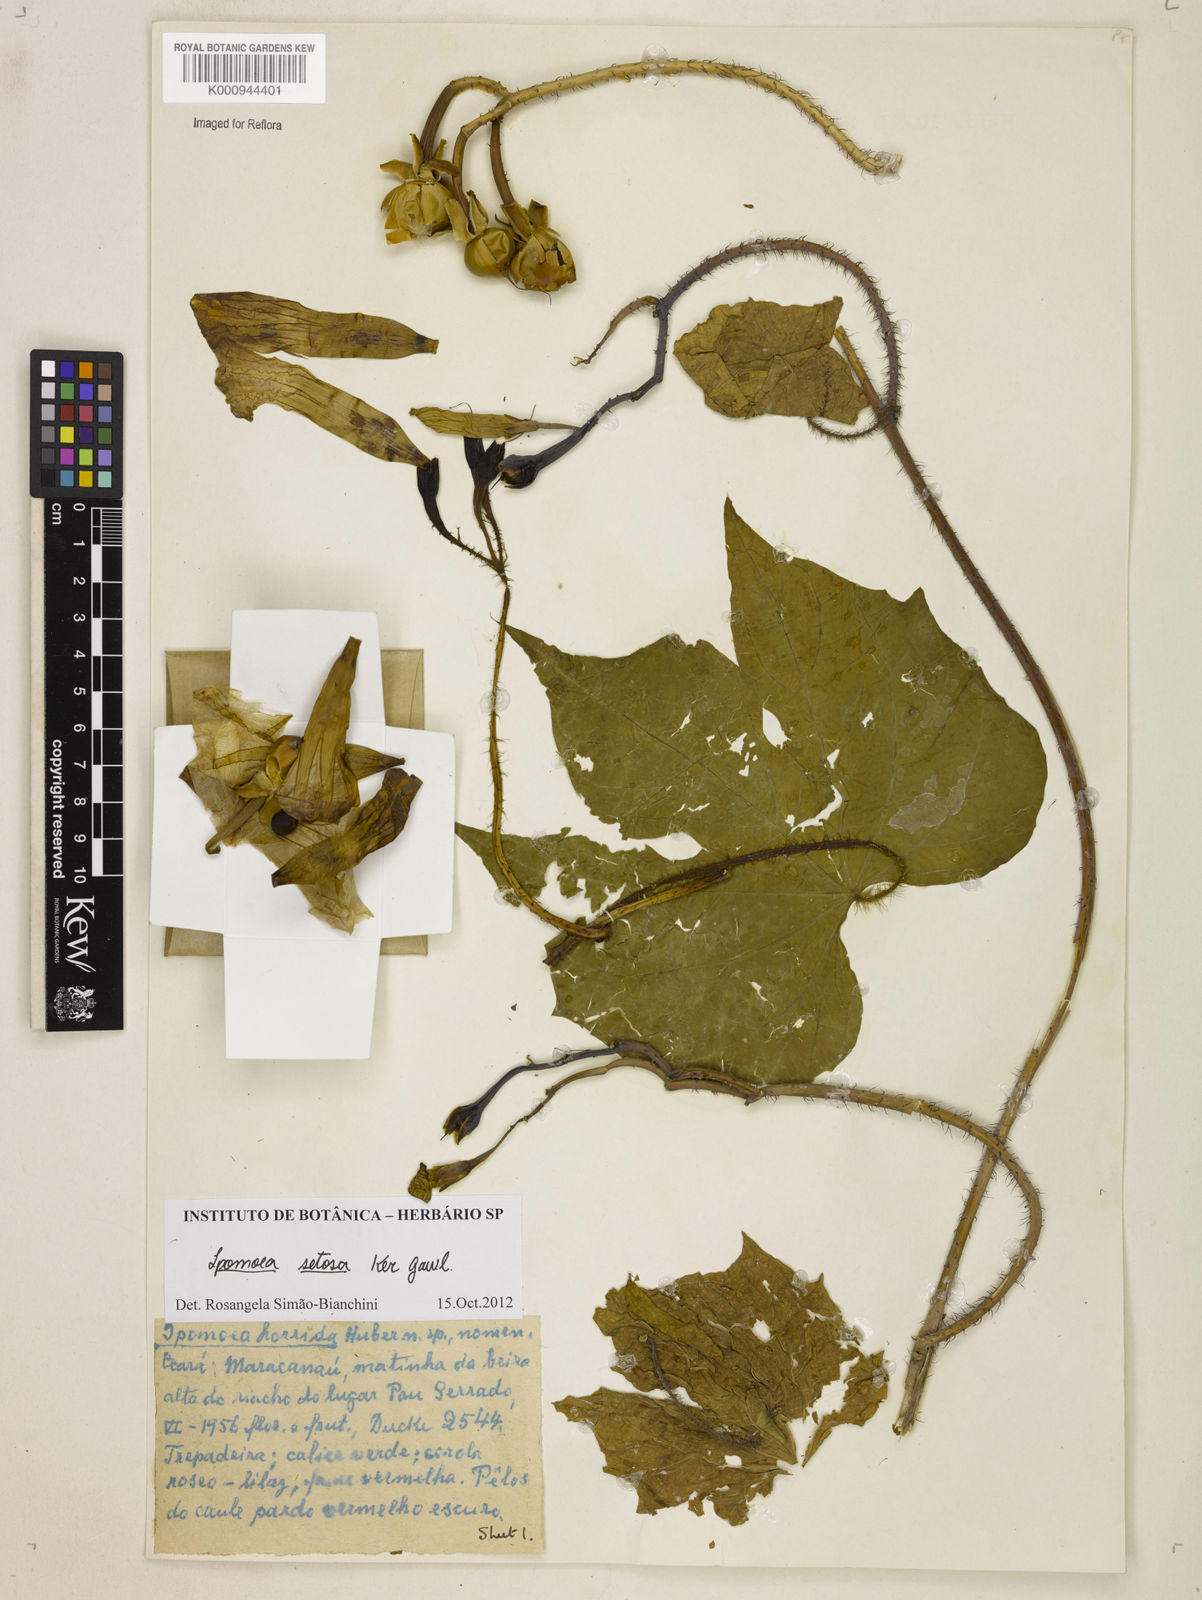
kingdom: Plantae
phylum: Tracheophyta
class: Magnoliopsida
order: Solanales
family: Convolvulaceae
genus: Ipomoea
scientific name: Ipomoea setosa
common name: Brazilian morning-glory
